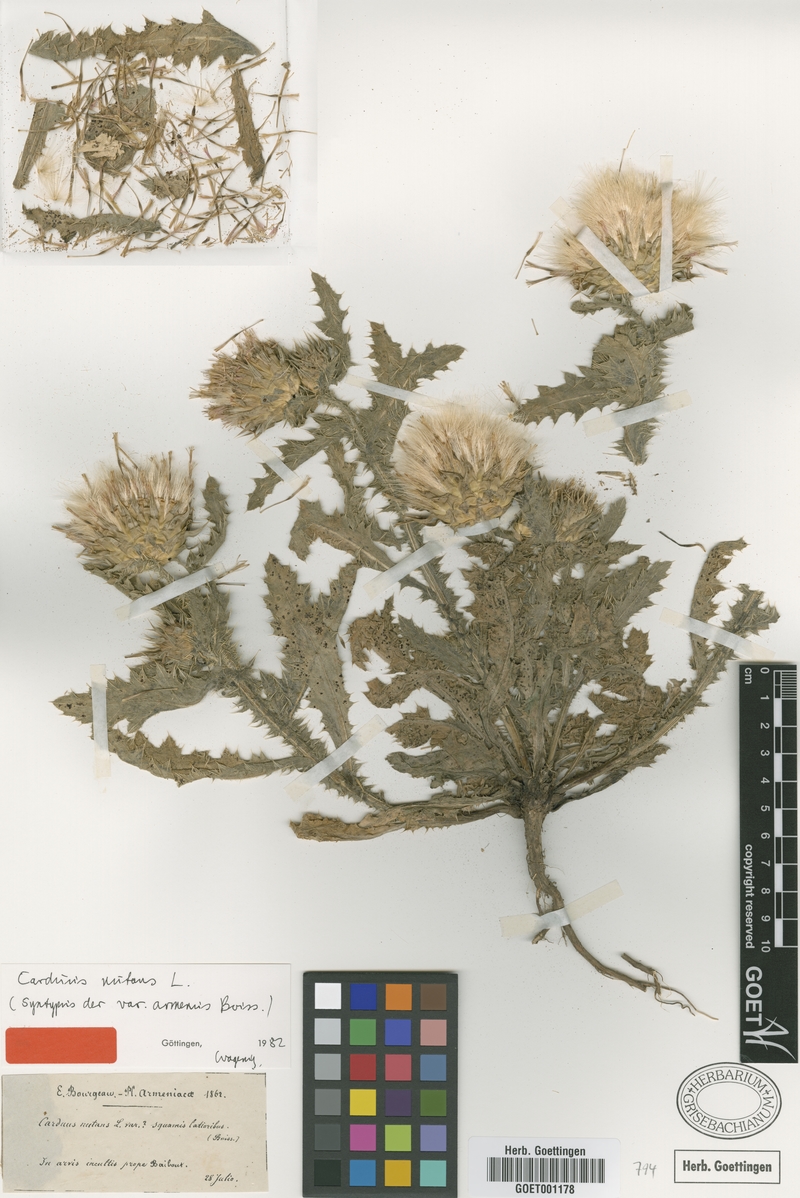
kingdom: Plantae
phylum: Tracheophyta
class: Magnoliopsida
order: Asterales
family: Asteraceae
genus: Carduus
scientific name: Carduus nutans
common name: Musk thistle
